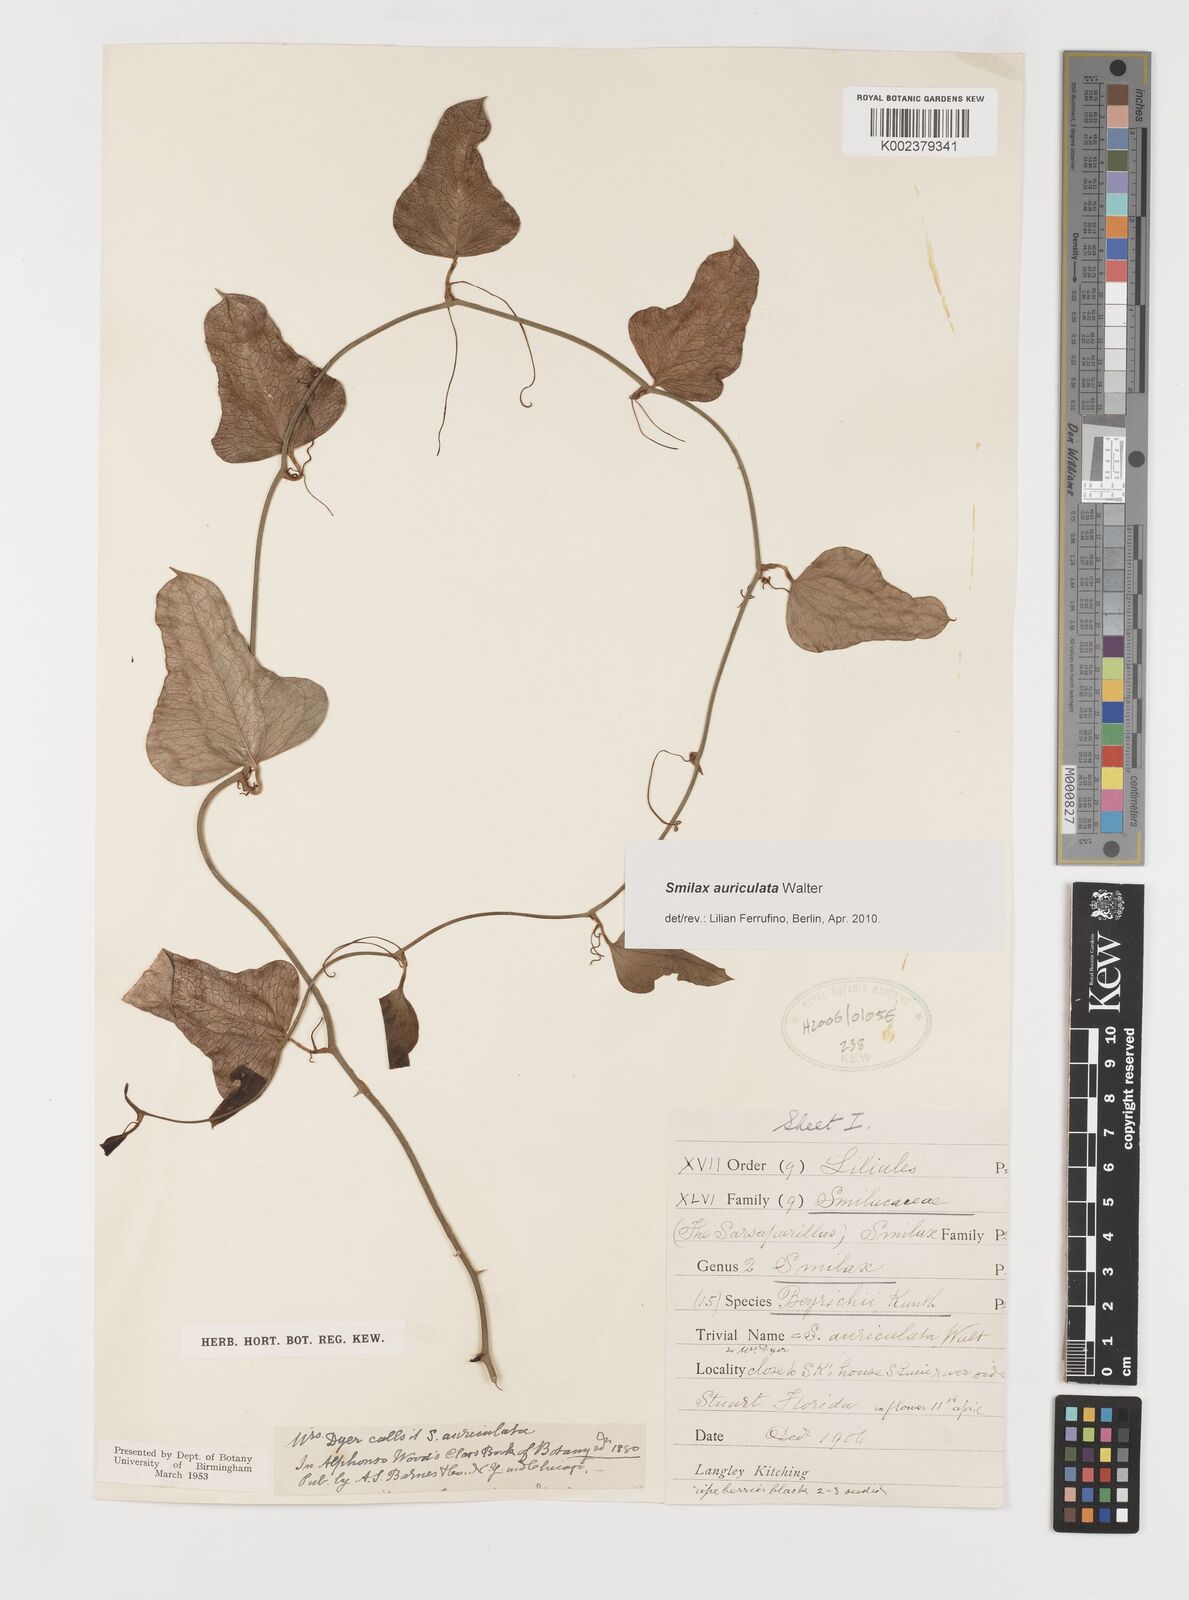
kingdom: Plantae
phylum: Tracheophyta
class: Liliopsida
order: Liliales
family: Smilacaceae
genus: Smilax
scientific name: Smilax auriculata
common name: Wild bamboo
